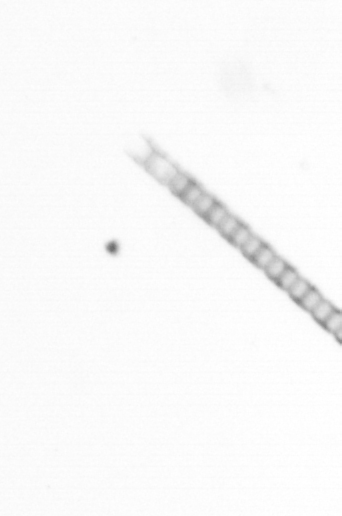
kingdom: Chromista
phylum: Ochrophyta
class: Bacillariophyceae
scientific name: Bacillariophyceae
